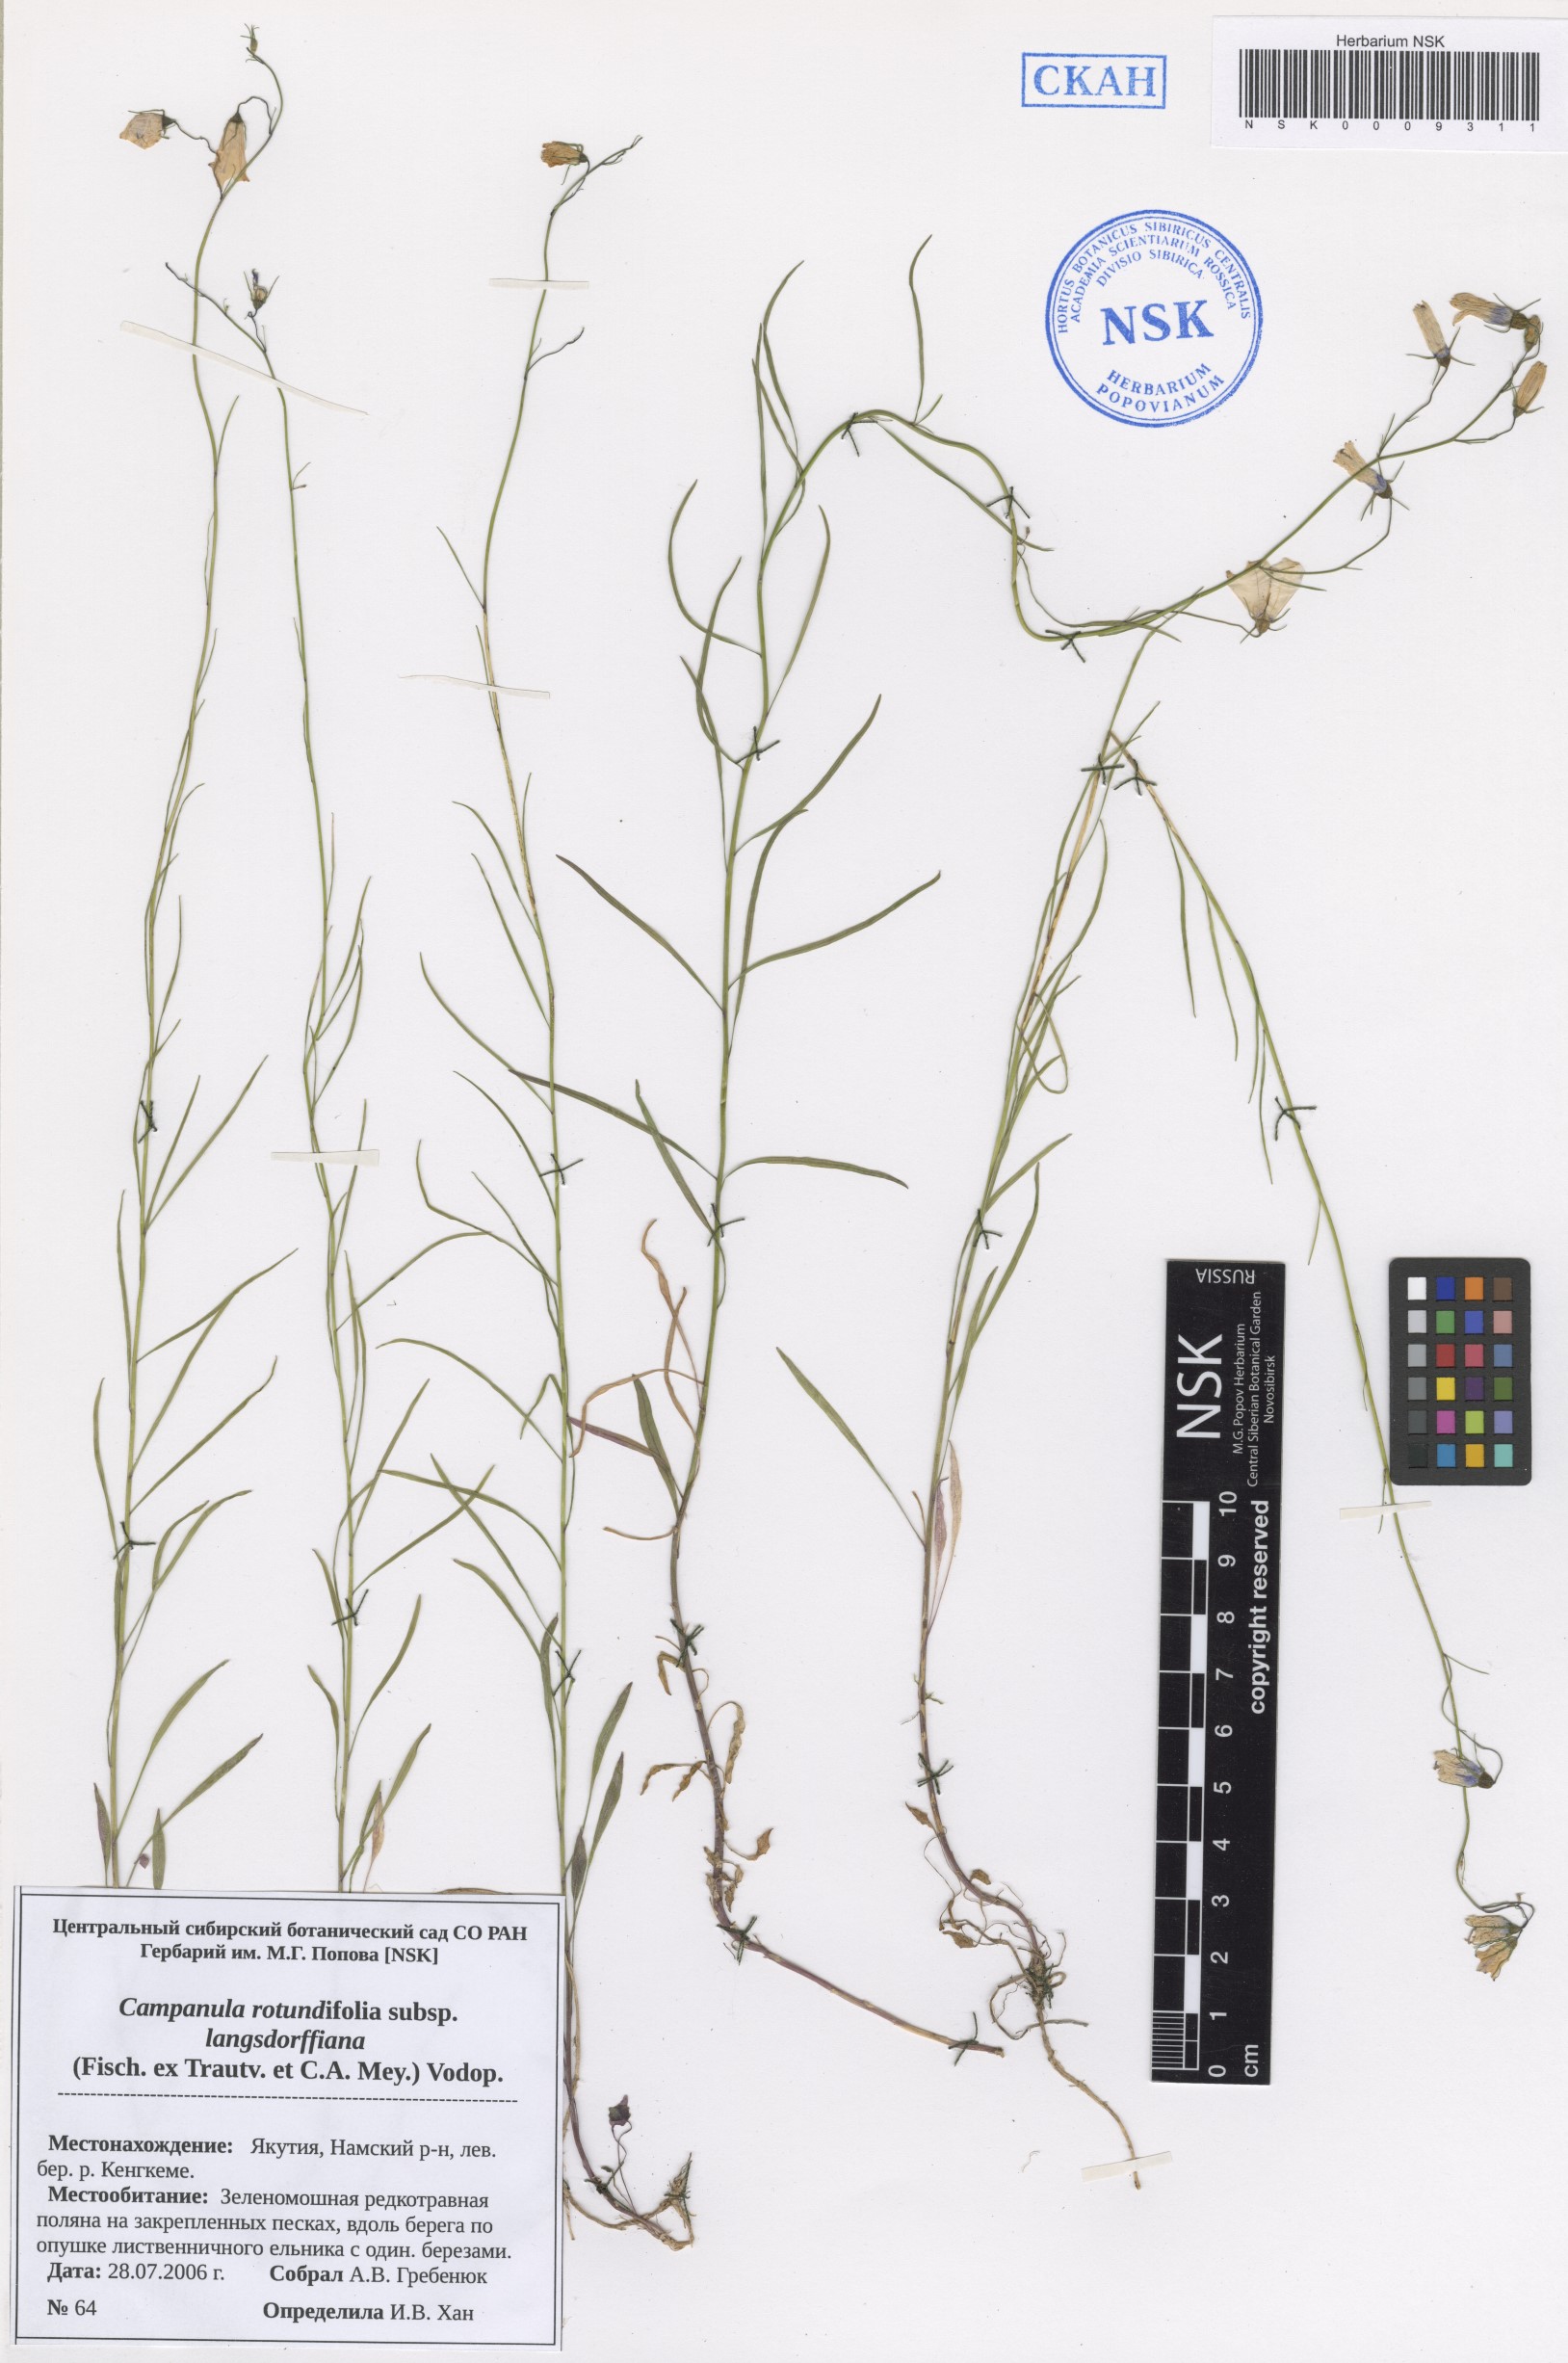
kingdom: Plantae
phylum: Tracheophyta
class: Magnoliopsida
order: Asterales
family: Campanulaceae
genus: Campanula
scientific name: Campanula rotundifolia
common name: Harebell
